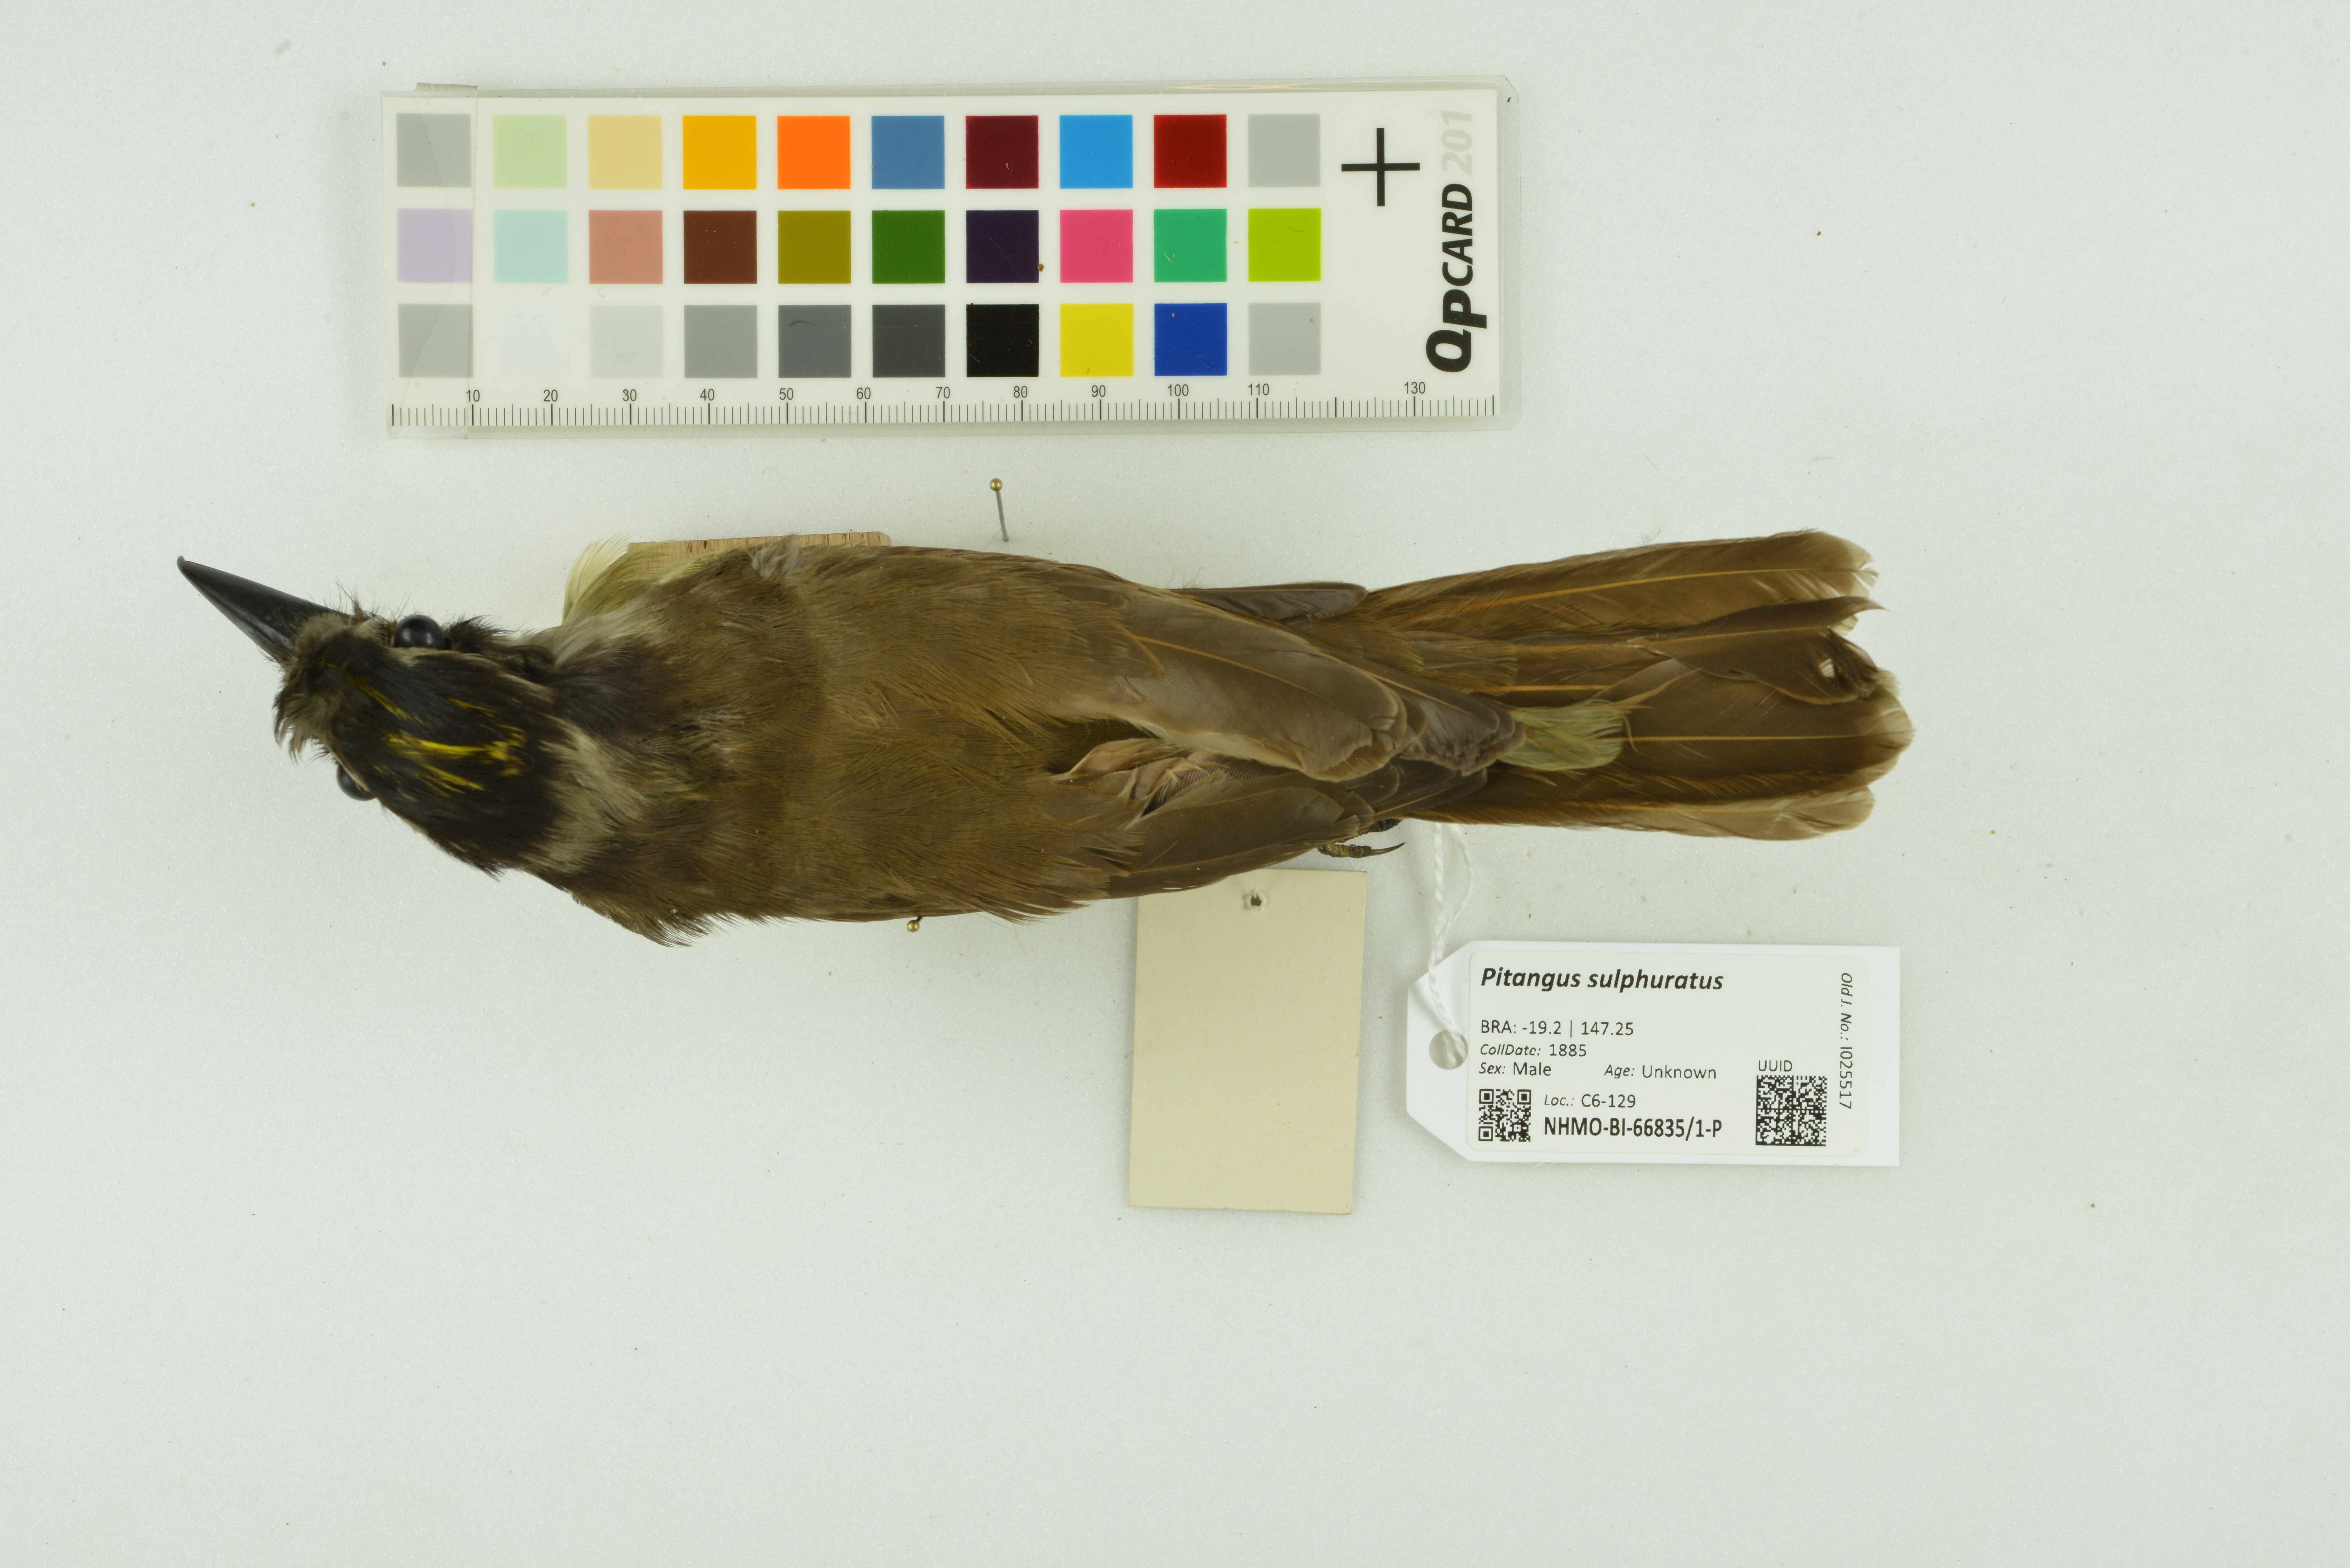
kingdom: Animalia
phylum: Chordata
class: Aves
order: Passeriformes
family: Tyrannidae
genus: Pitangus
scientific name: Pitangus sulphuratus
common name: Great kiskadee
